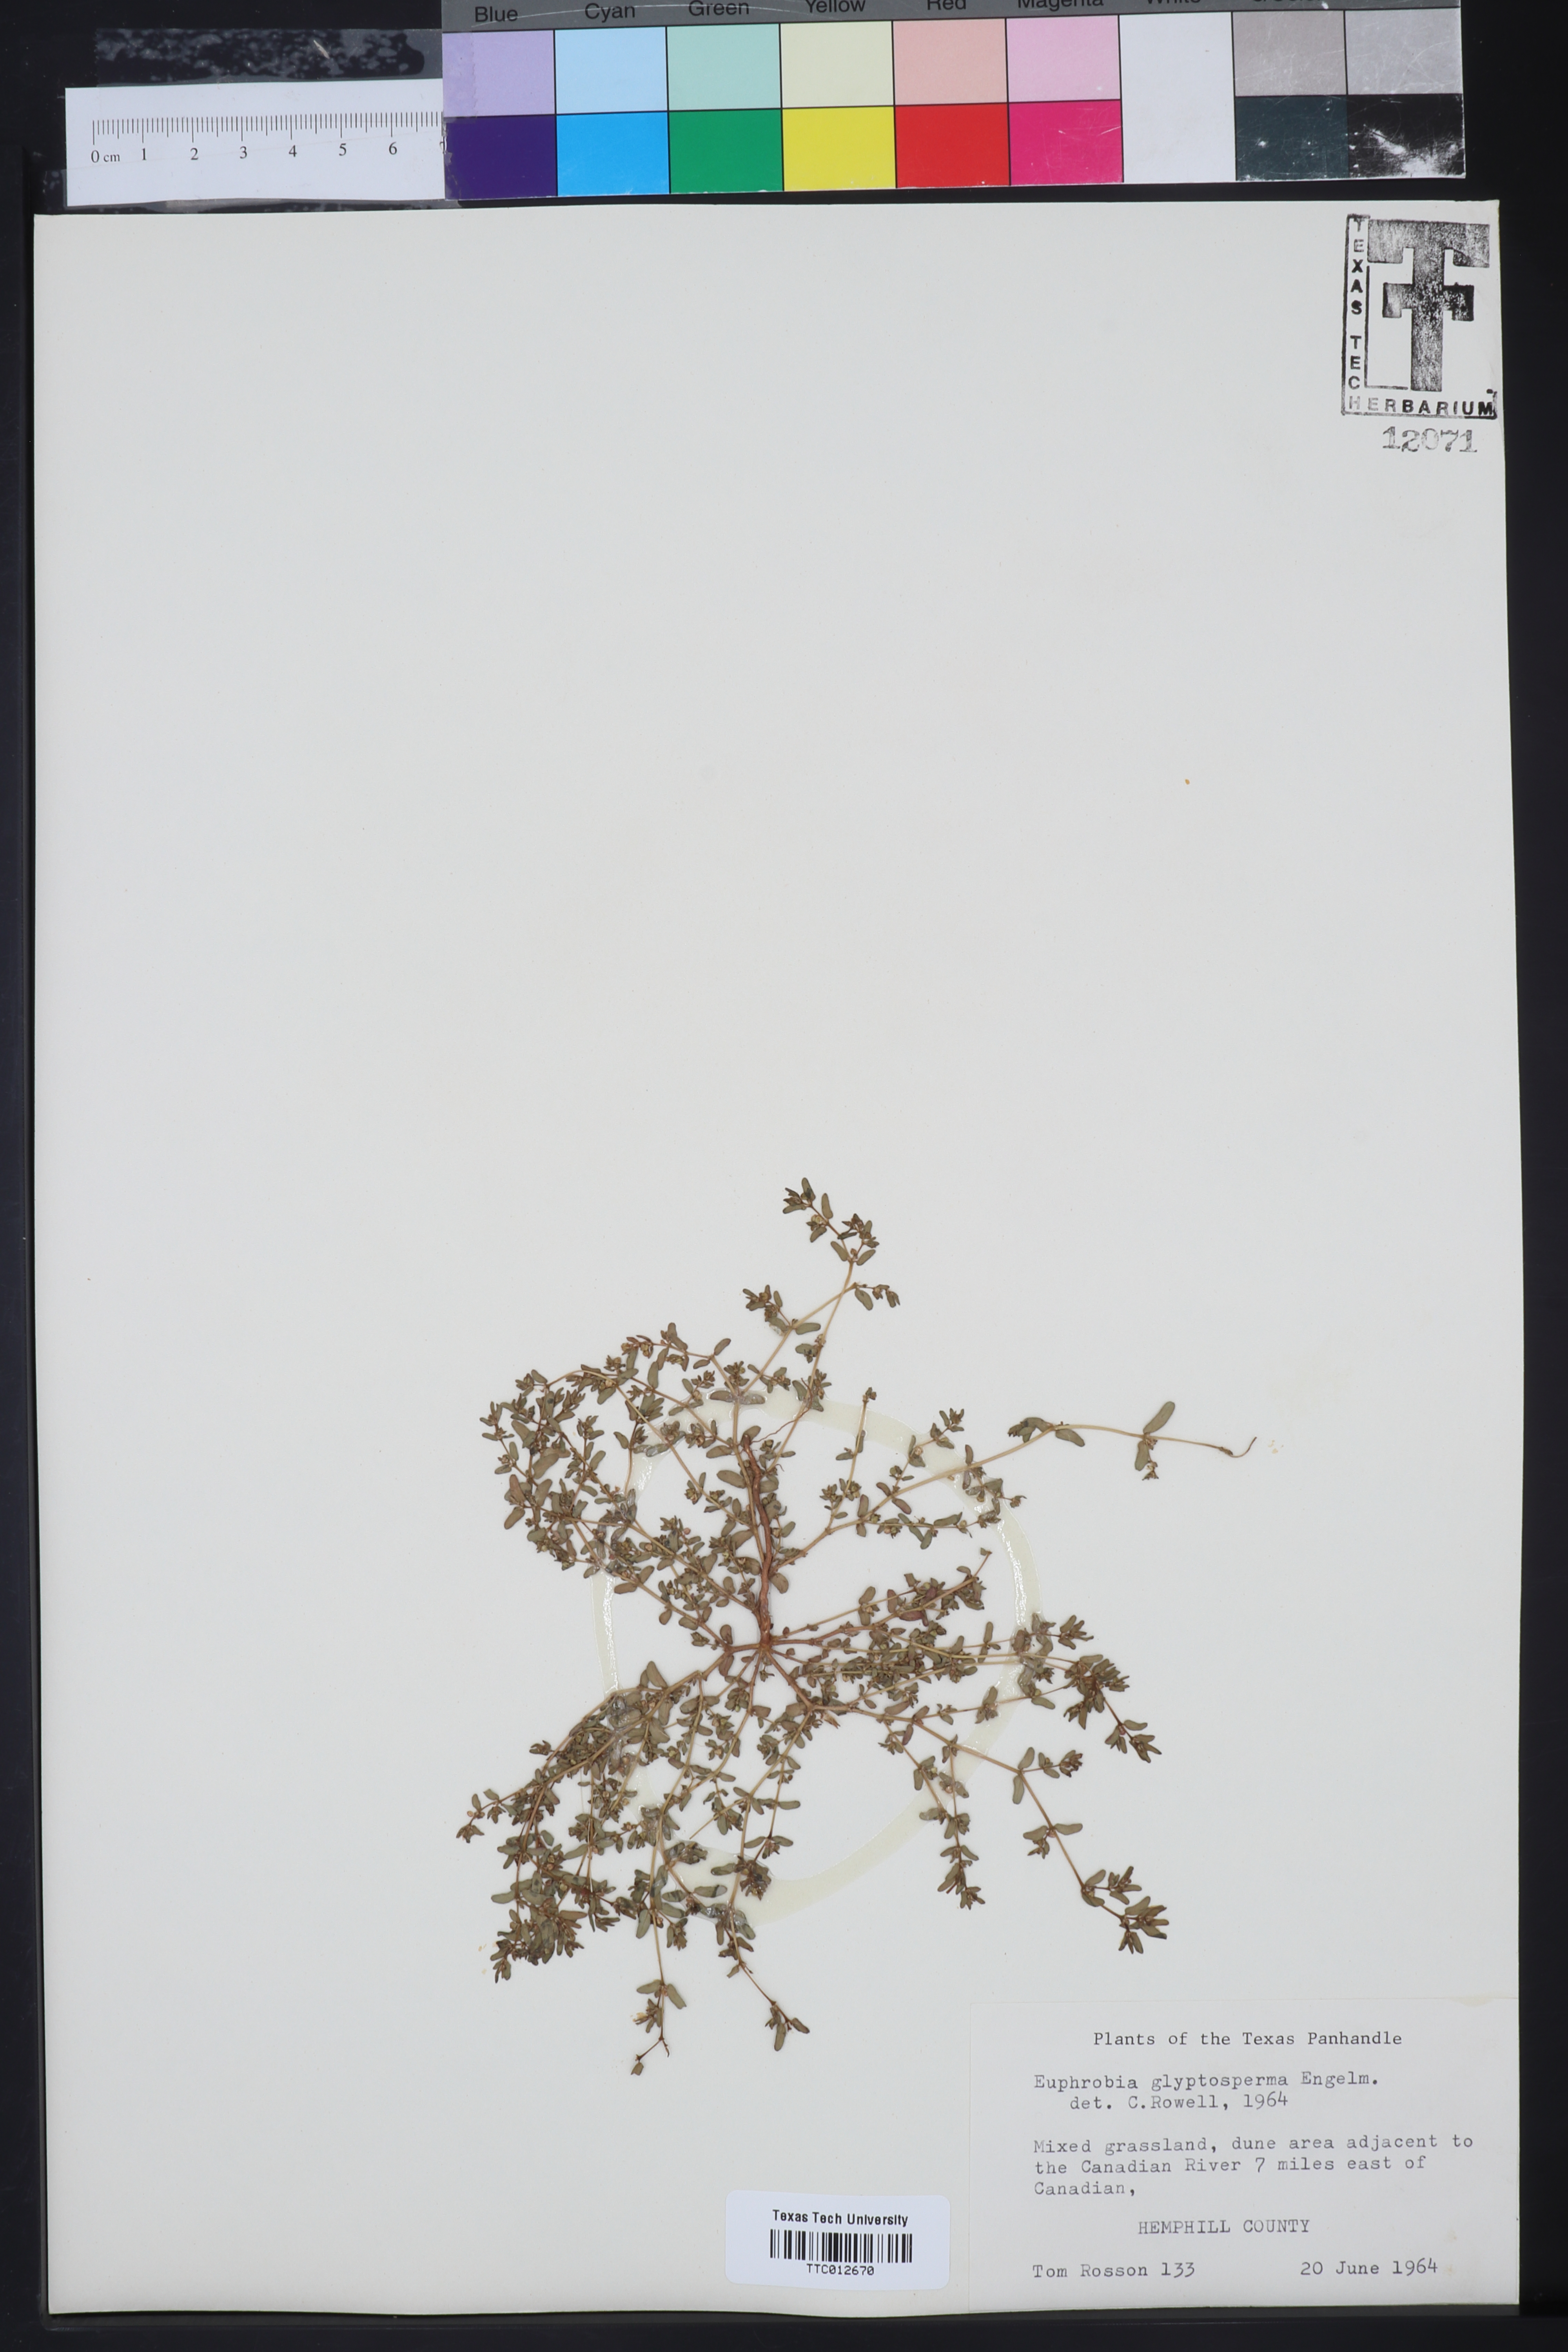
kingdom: Plantae
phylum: Tracheophyta
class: Magnoliopsida
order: Malpighiales
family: Euphorbiaceae
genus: Euphorbia
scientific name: Euphorbia glyptosperma
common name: Corrugate-seeded spurge
